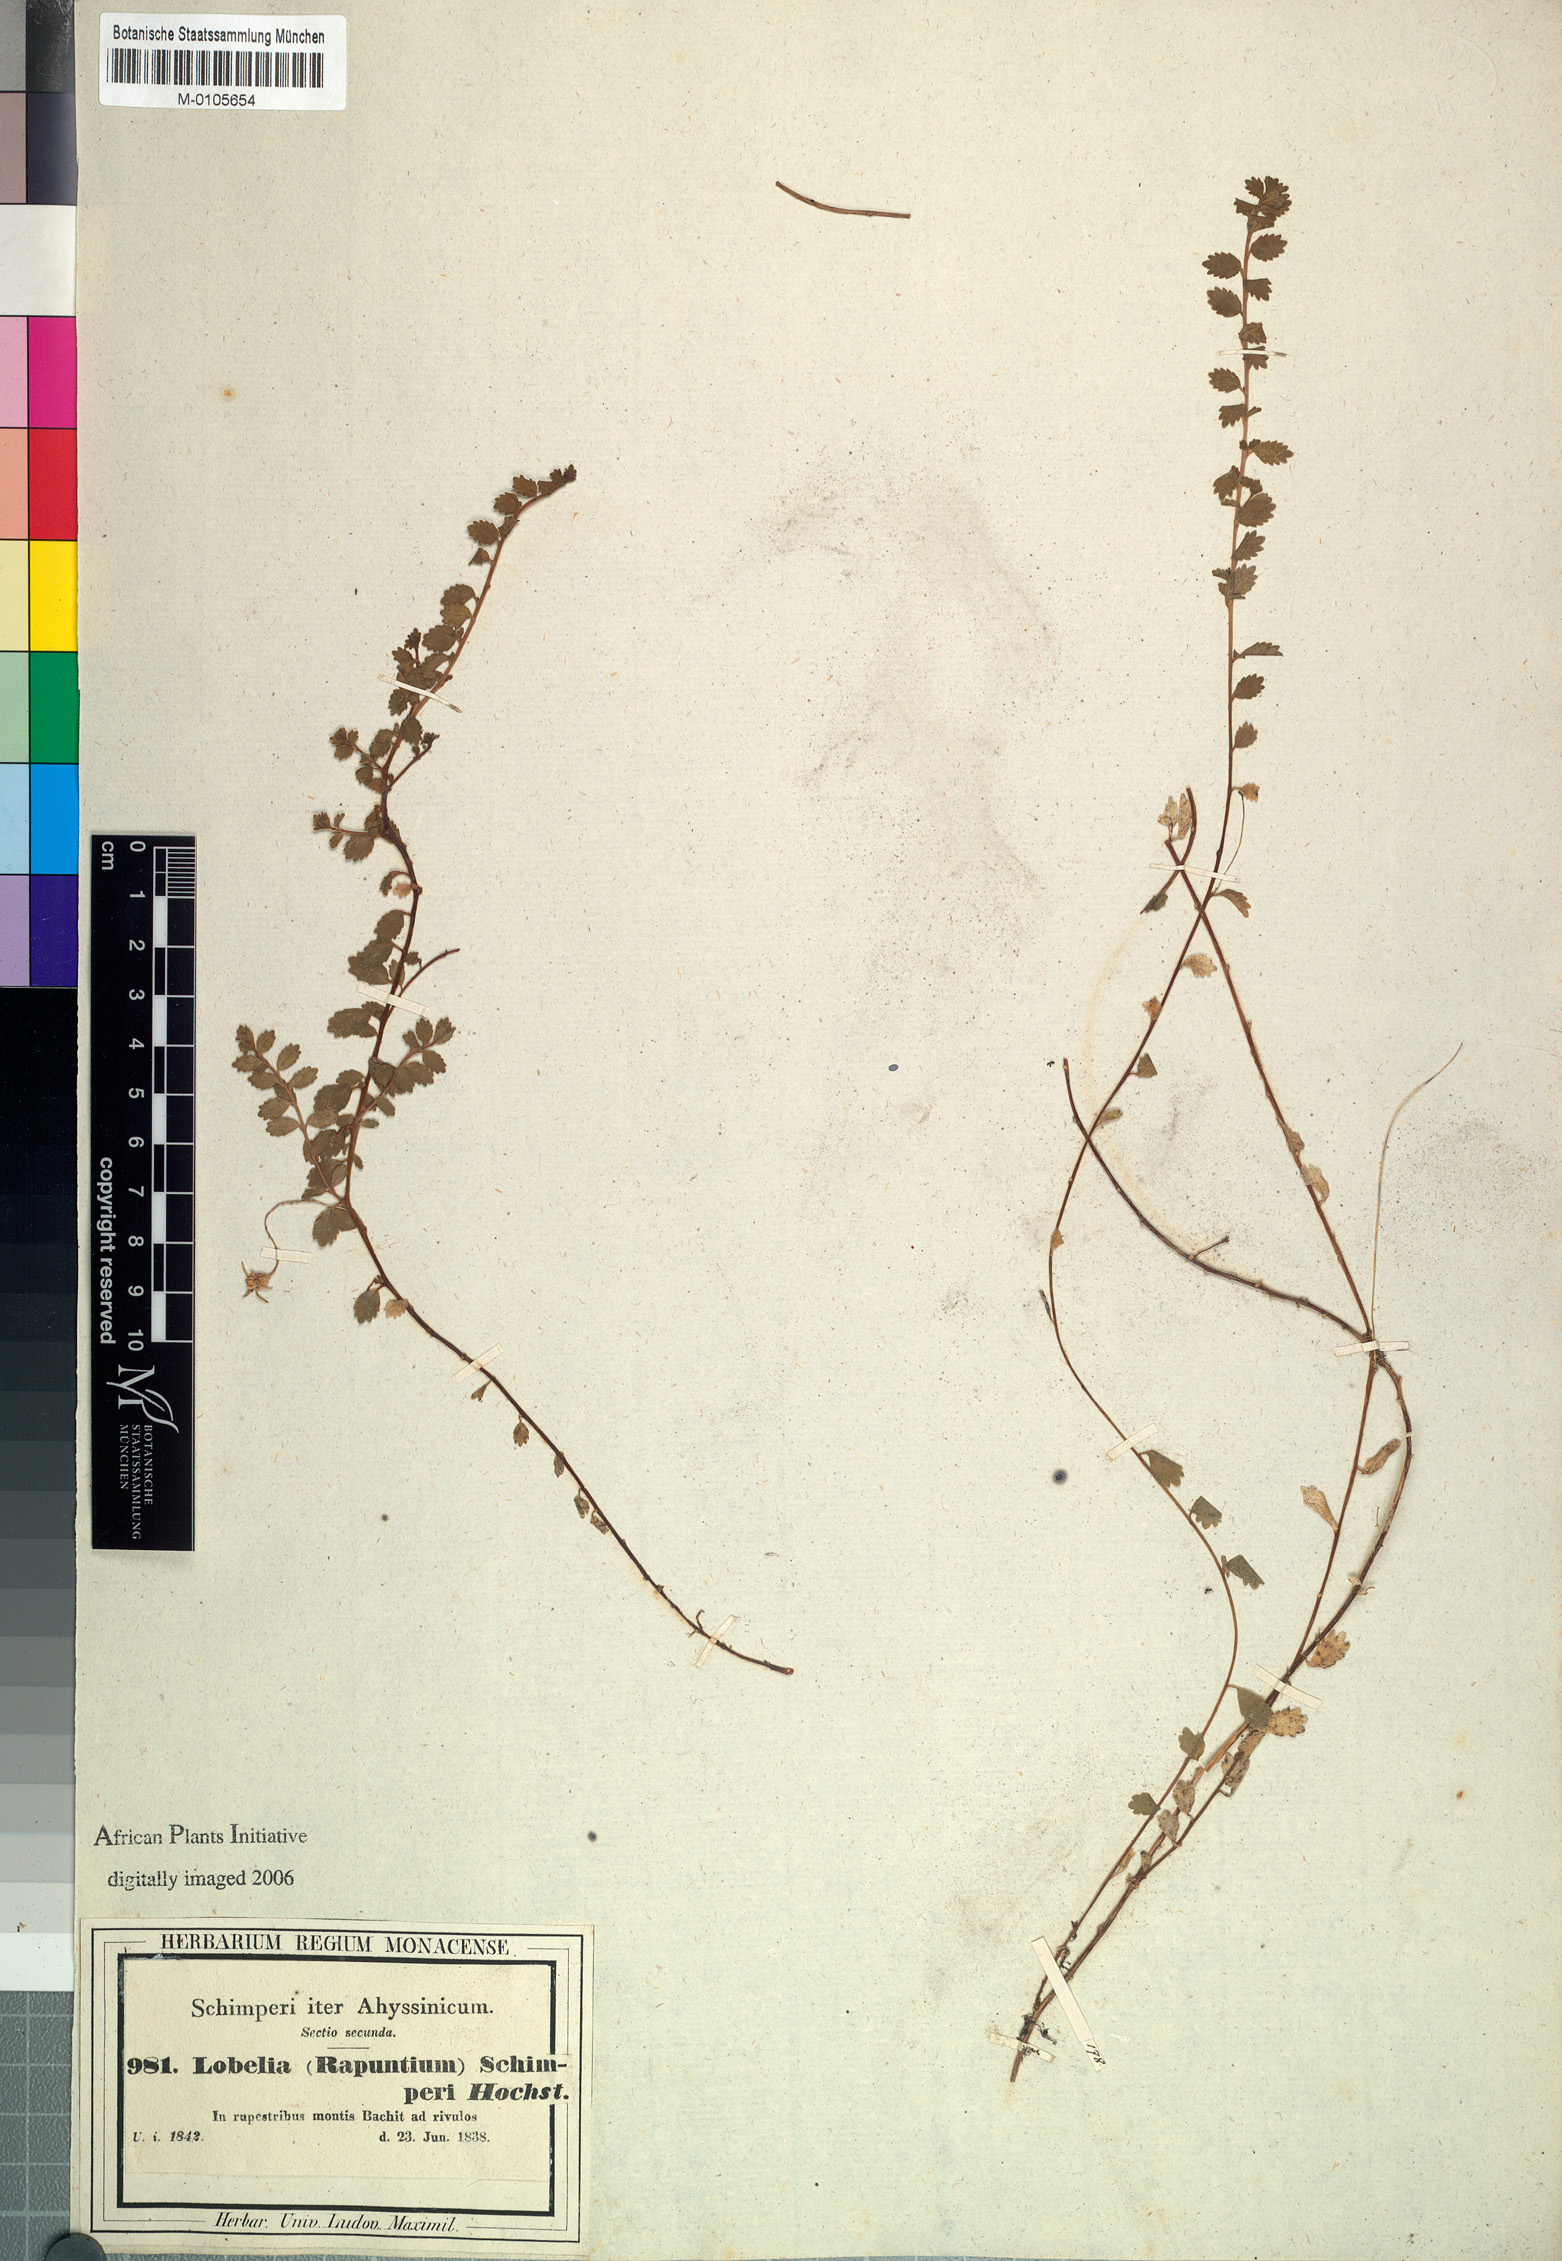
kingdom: Plantae
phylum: Tracheophyta
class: Magnoliopsida
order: Asterales
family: Campanulaceae
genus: Lobelia
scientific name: Lobelia schimperi
